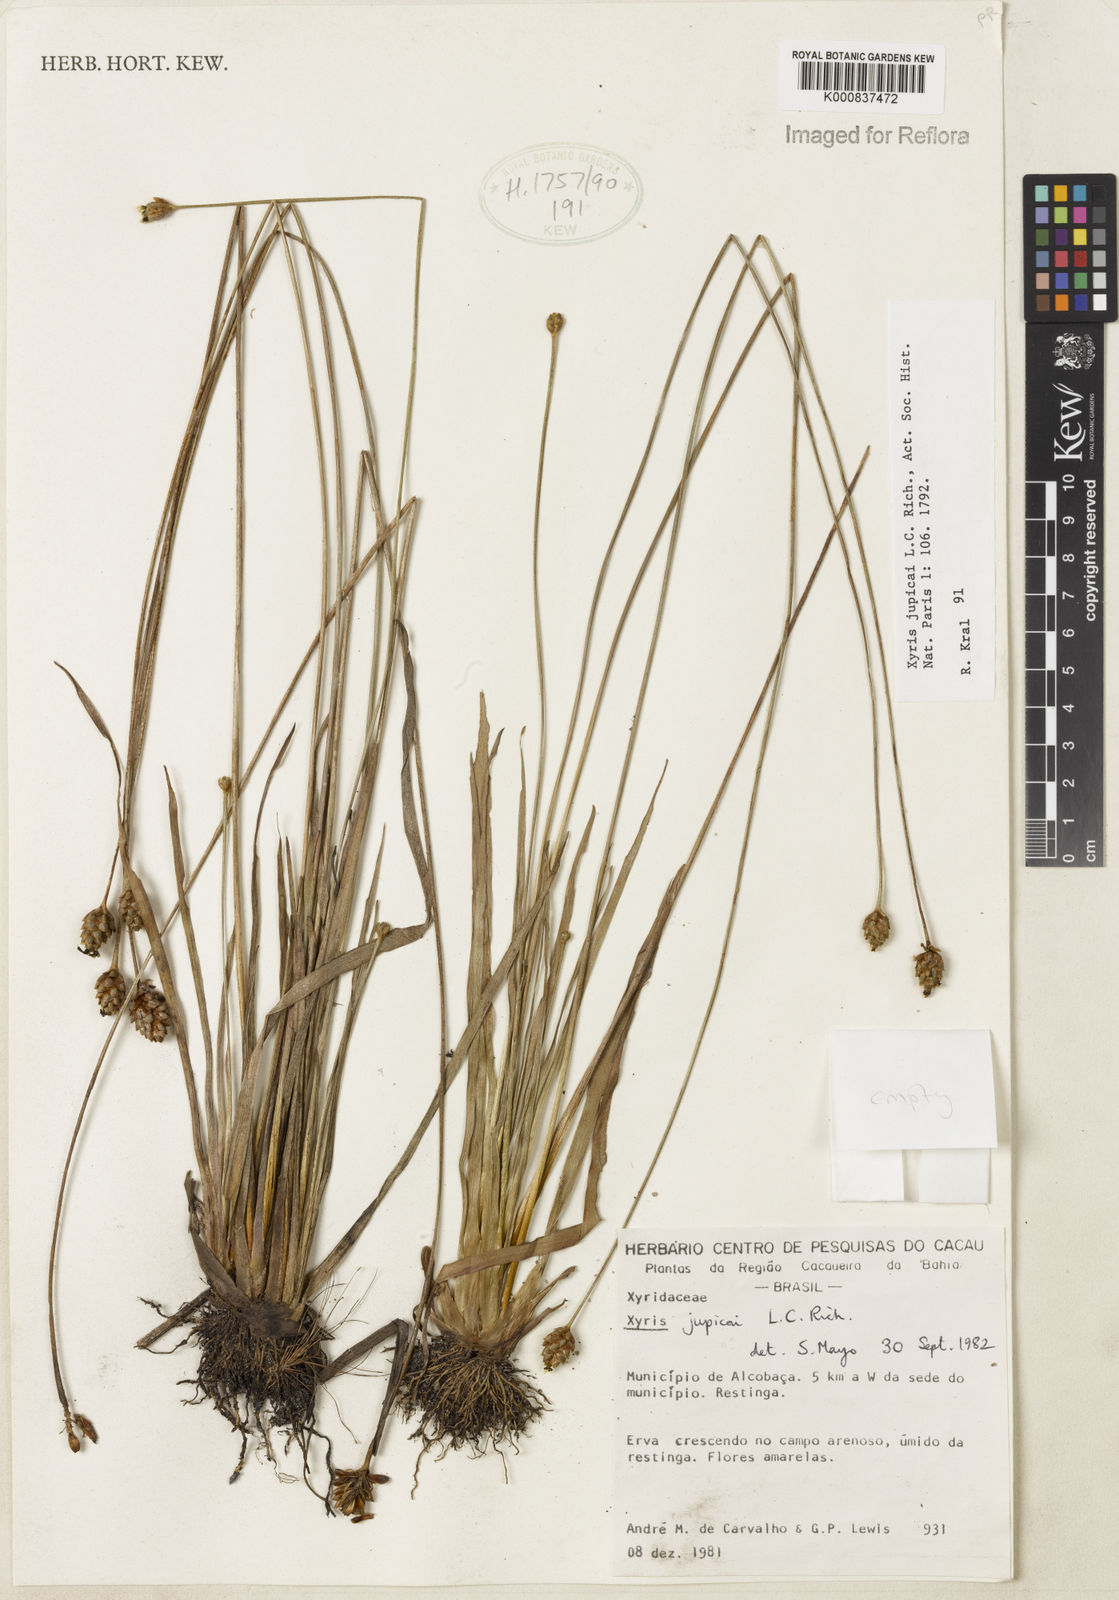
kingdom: Plantae
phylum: Tracheophyta
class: Liliopsida
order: Poales
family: Xyridaceae
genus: Xyris
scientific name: Xyris jupicai
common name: Richard's yelloweyed grass
